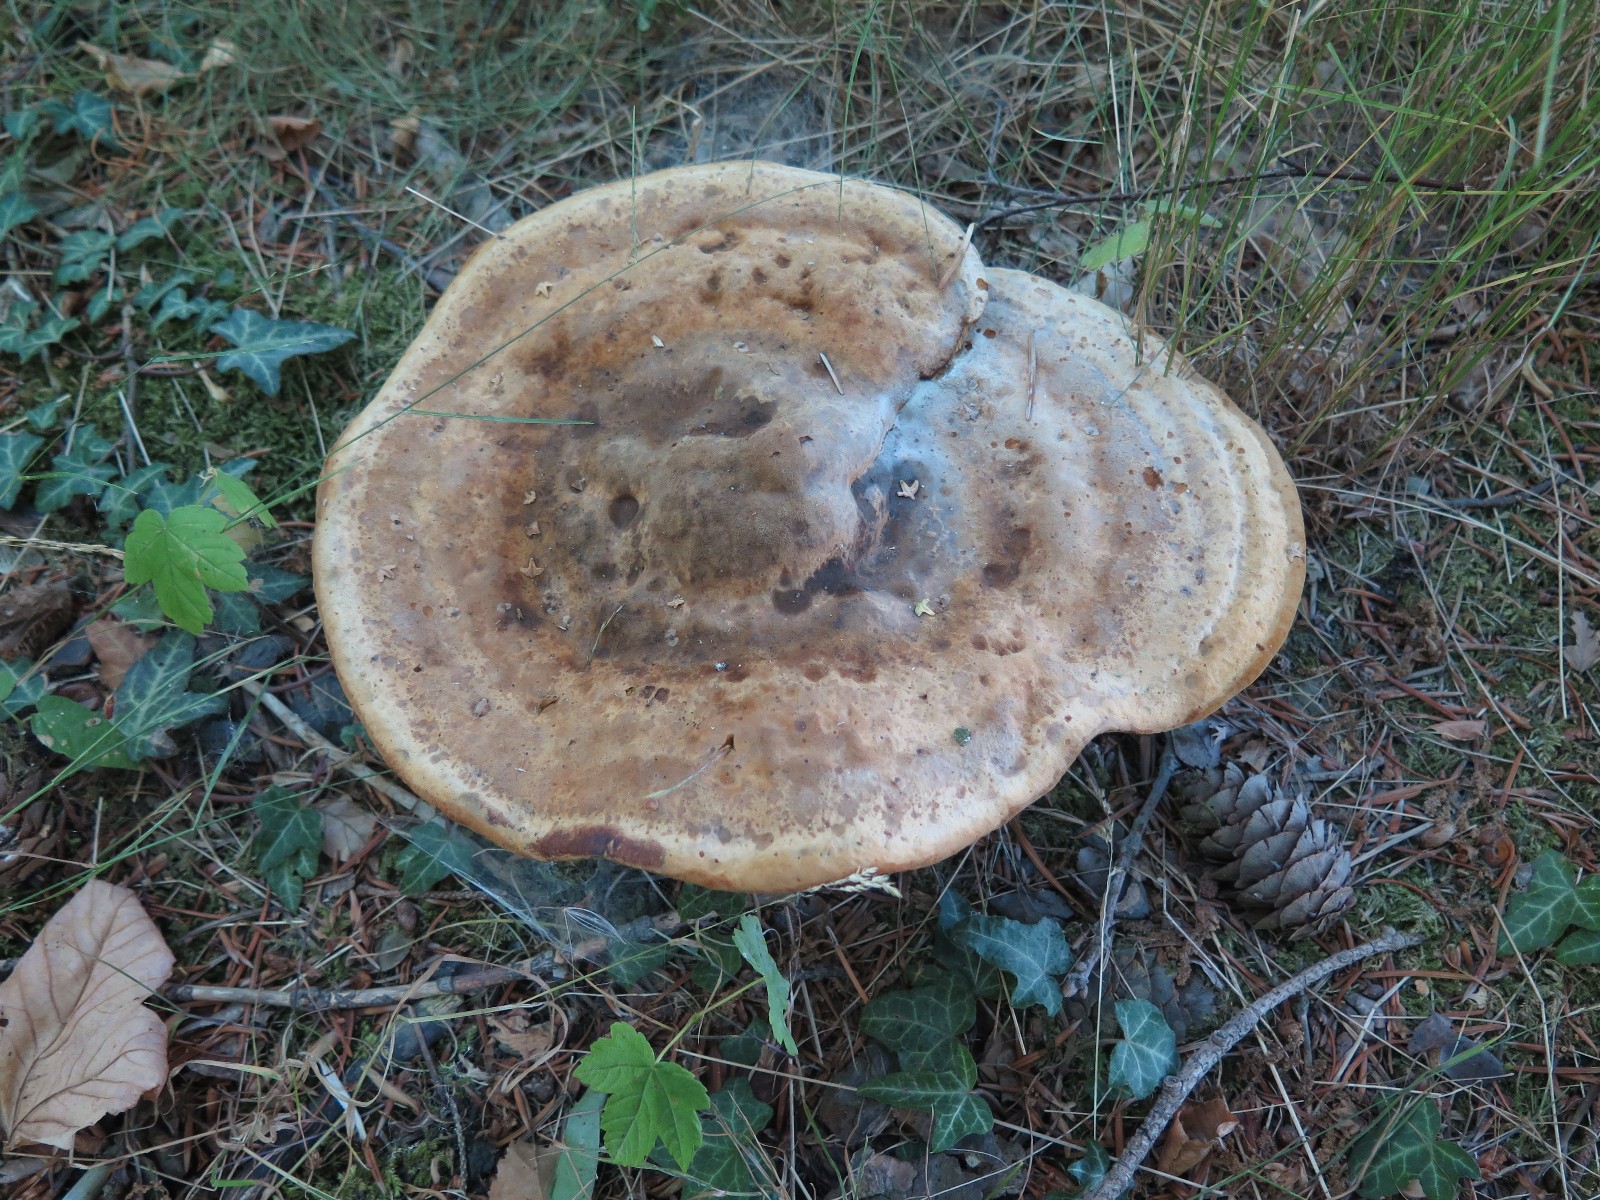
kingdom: Fungi
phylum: Basidiomycota
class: Agaricomycetes
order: Polyporales
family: Laetiporaceae
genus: Phaeolus
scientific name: Phaeolus schweinitzii
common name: brunporesvamp
